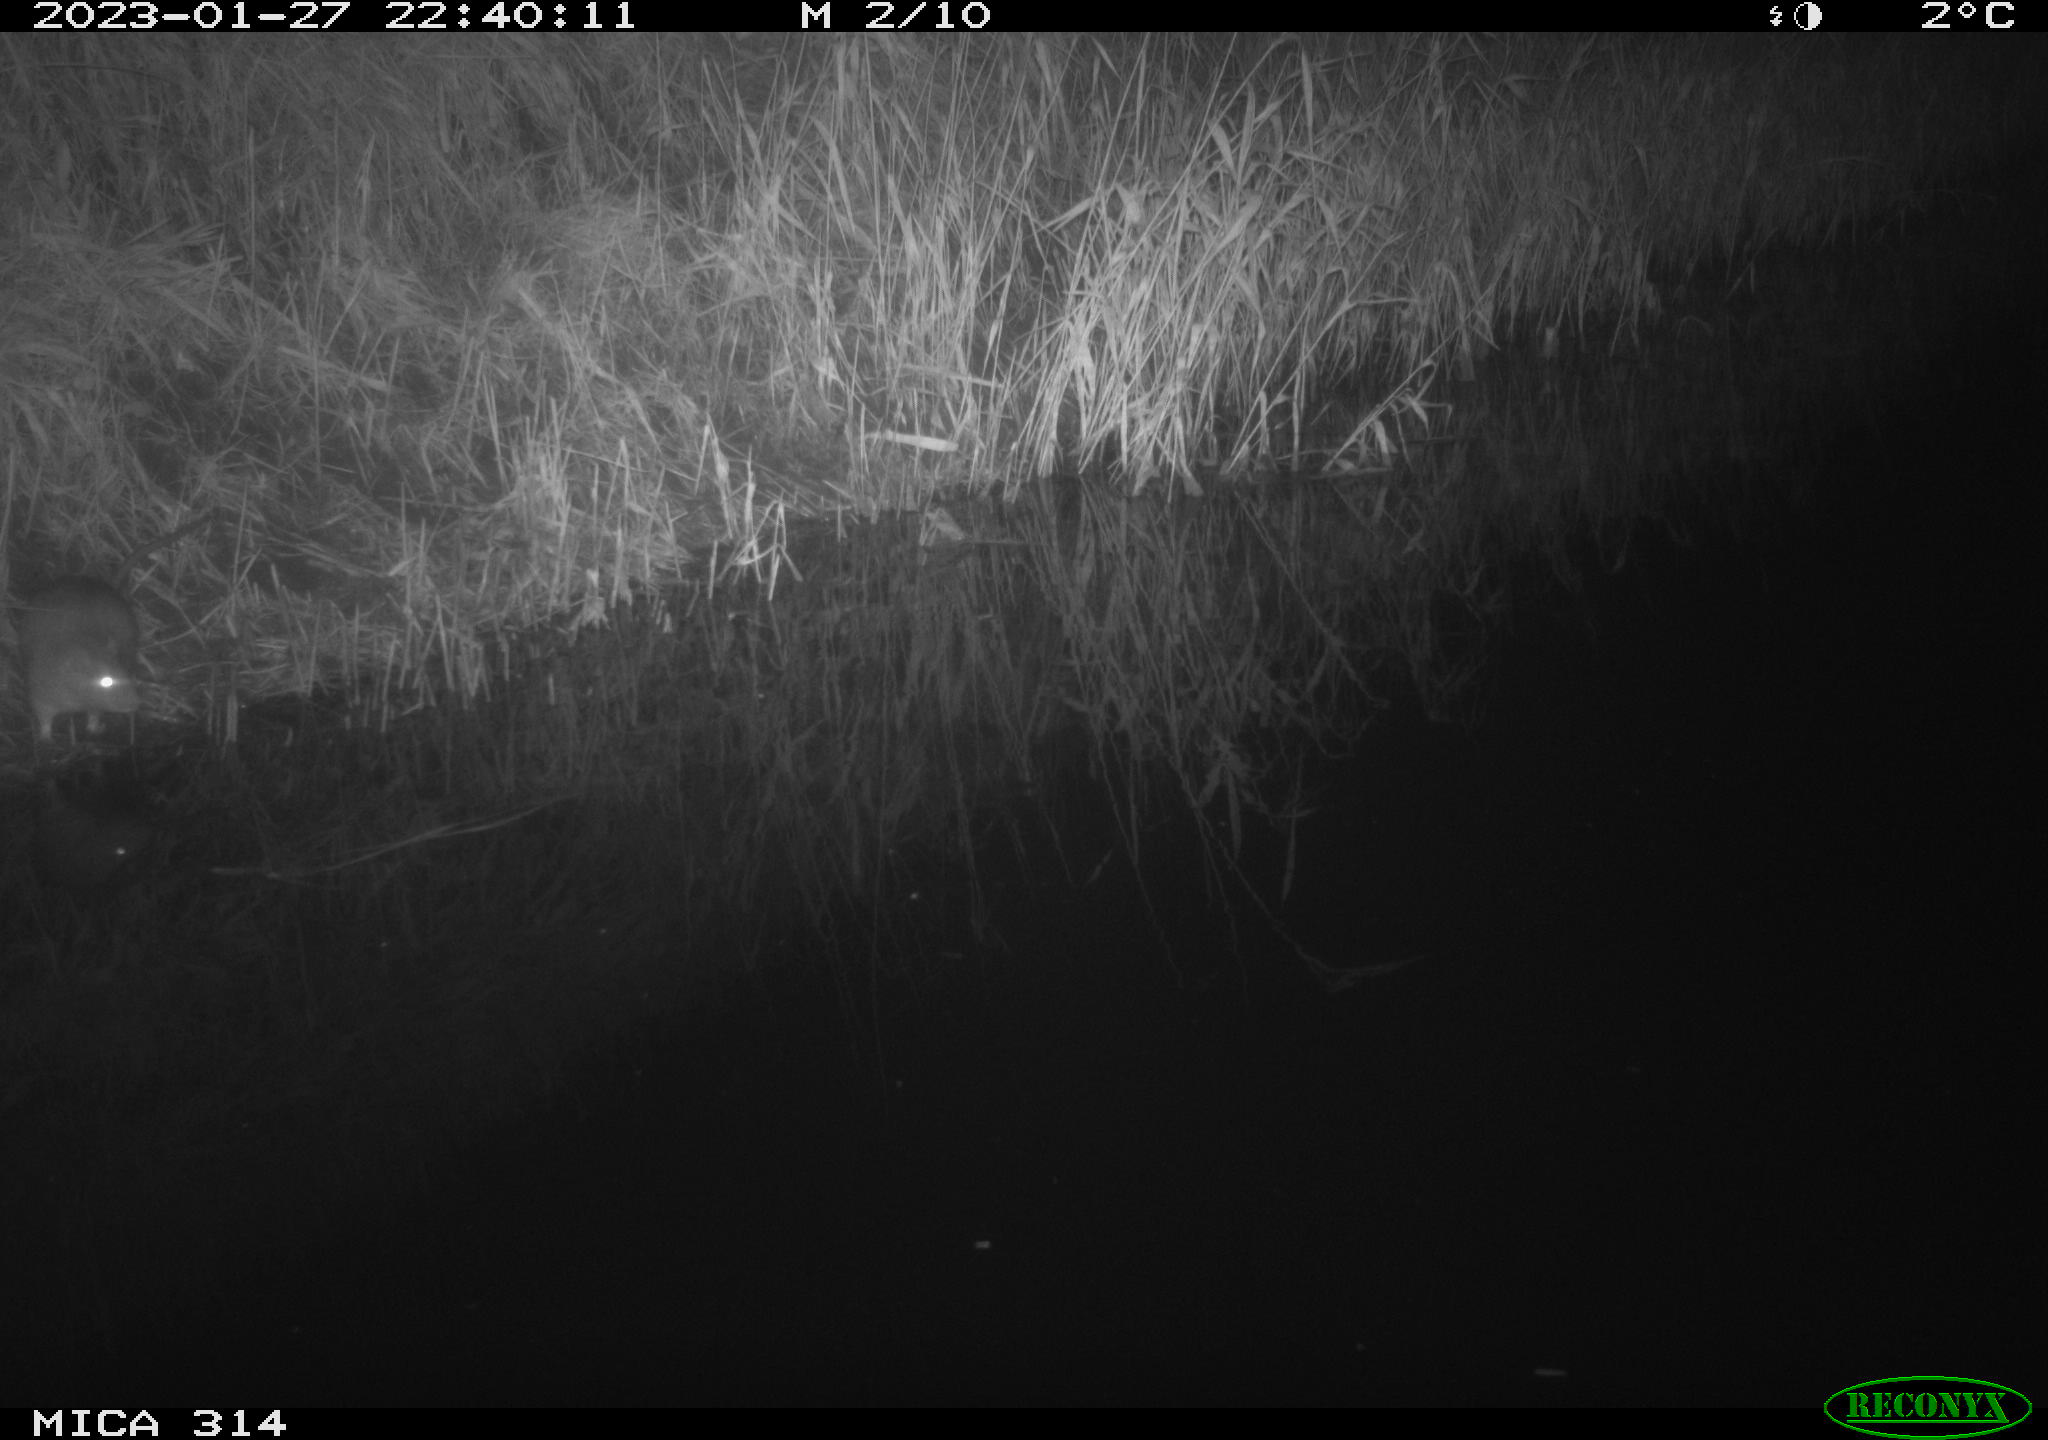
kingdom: Animalia
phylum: Chordata
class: Mammalia
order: Rodentia
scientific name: Rodentia
